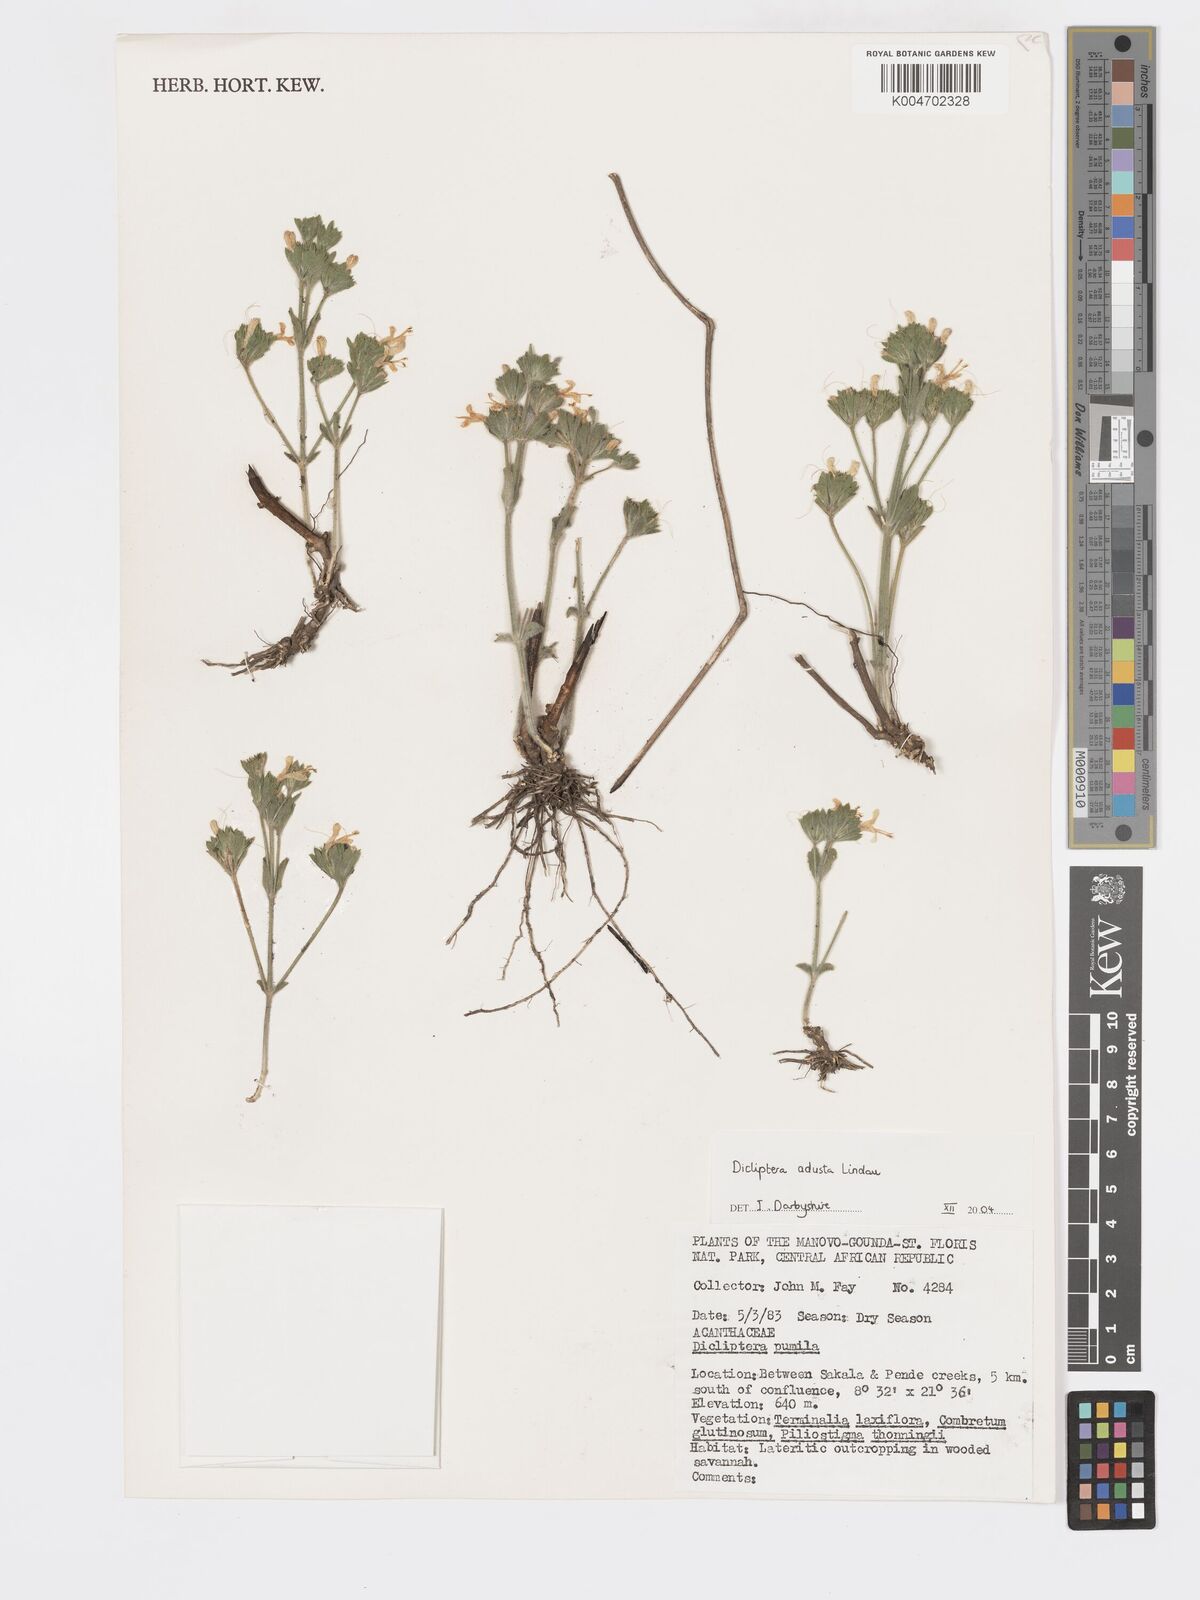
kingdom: Plantae
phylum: Tracheophyta
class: Magnoliopsida
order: Lamiales
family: Acanthaceae
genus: Dicliptera
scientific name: Dicliptera pumila
